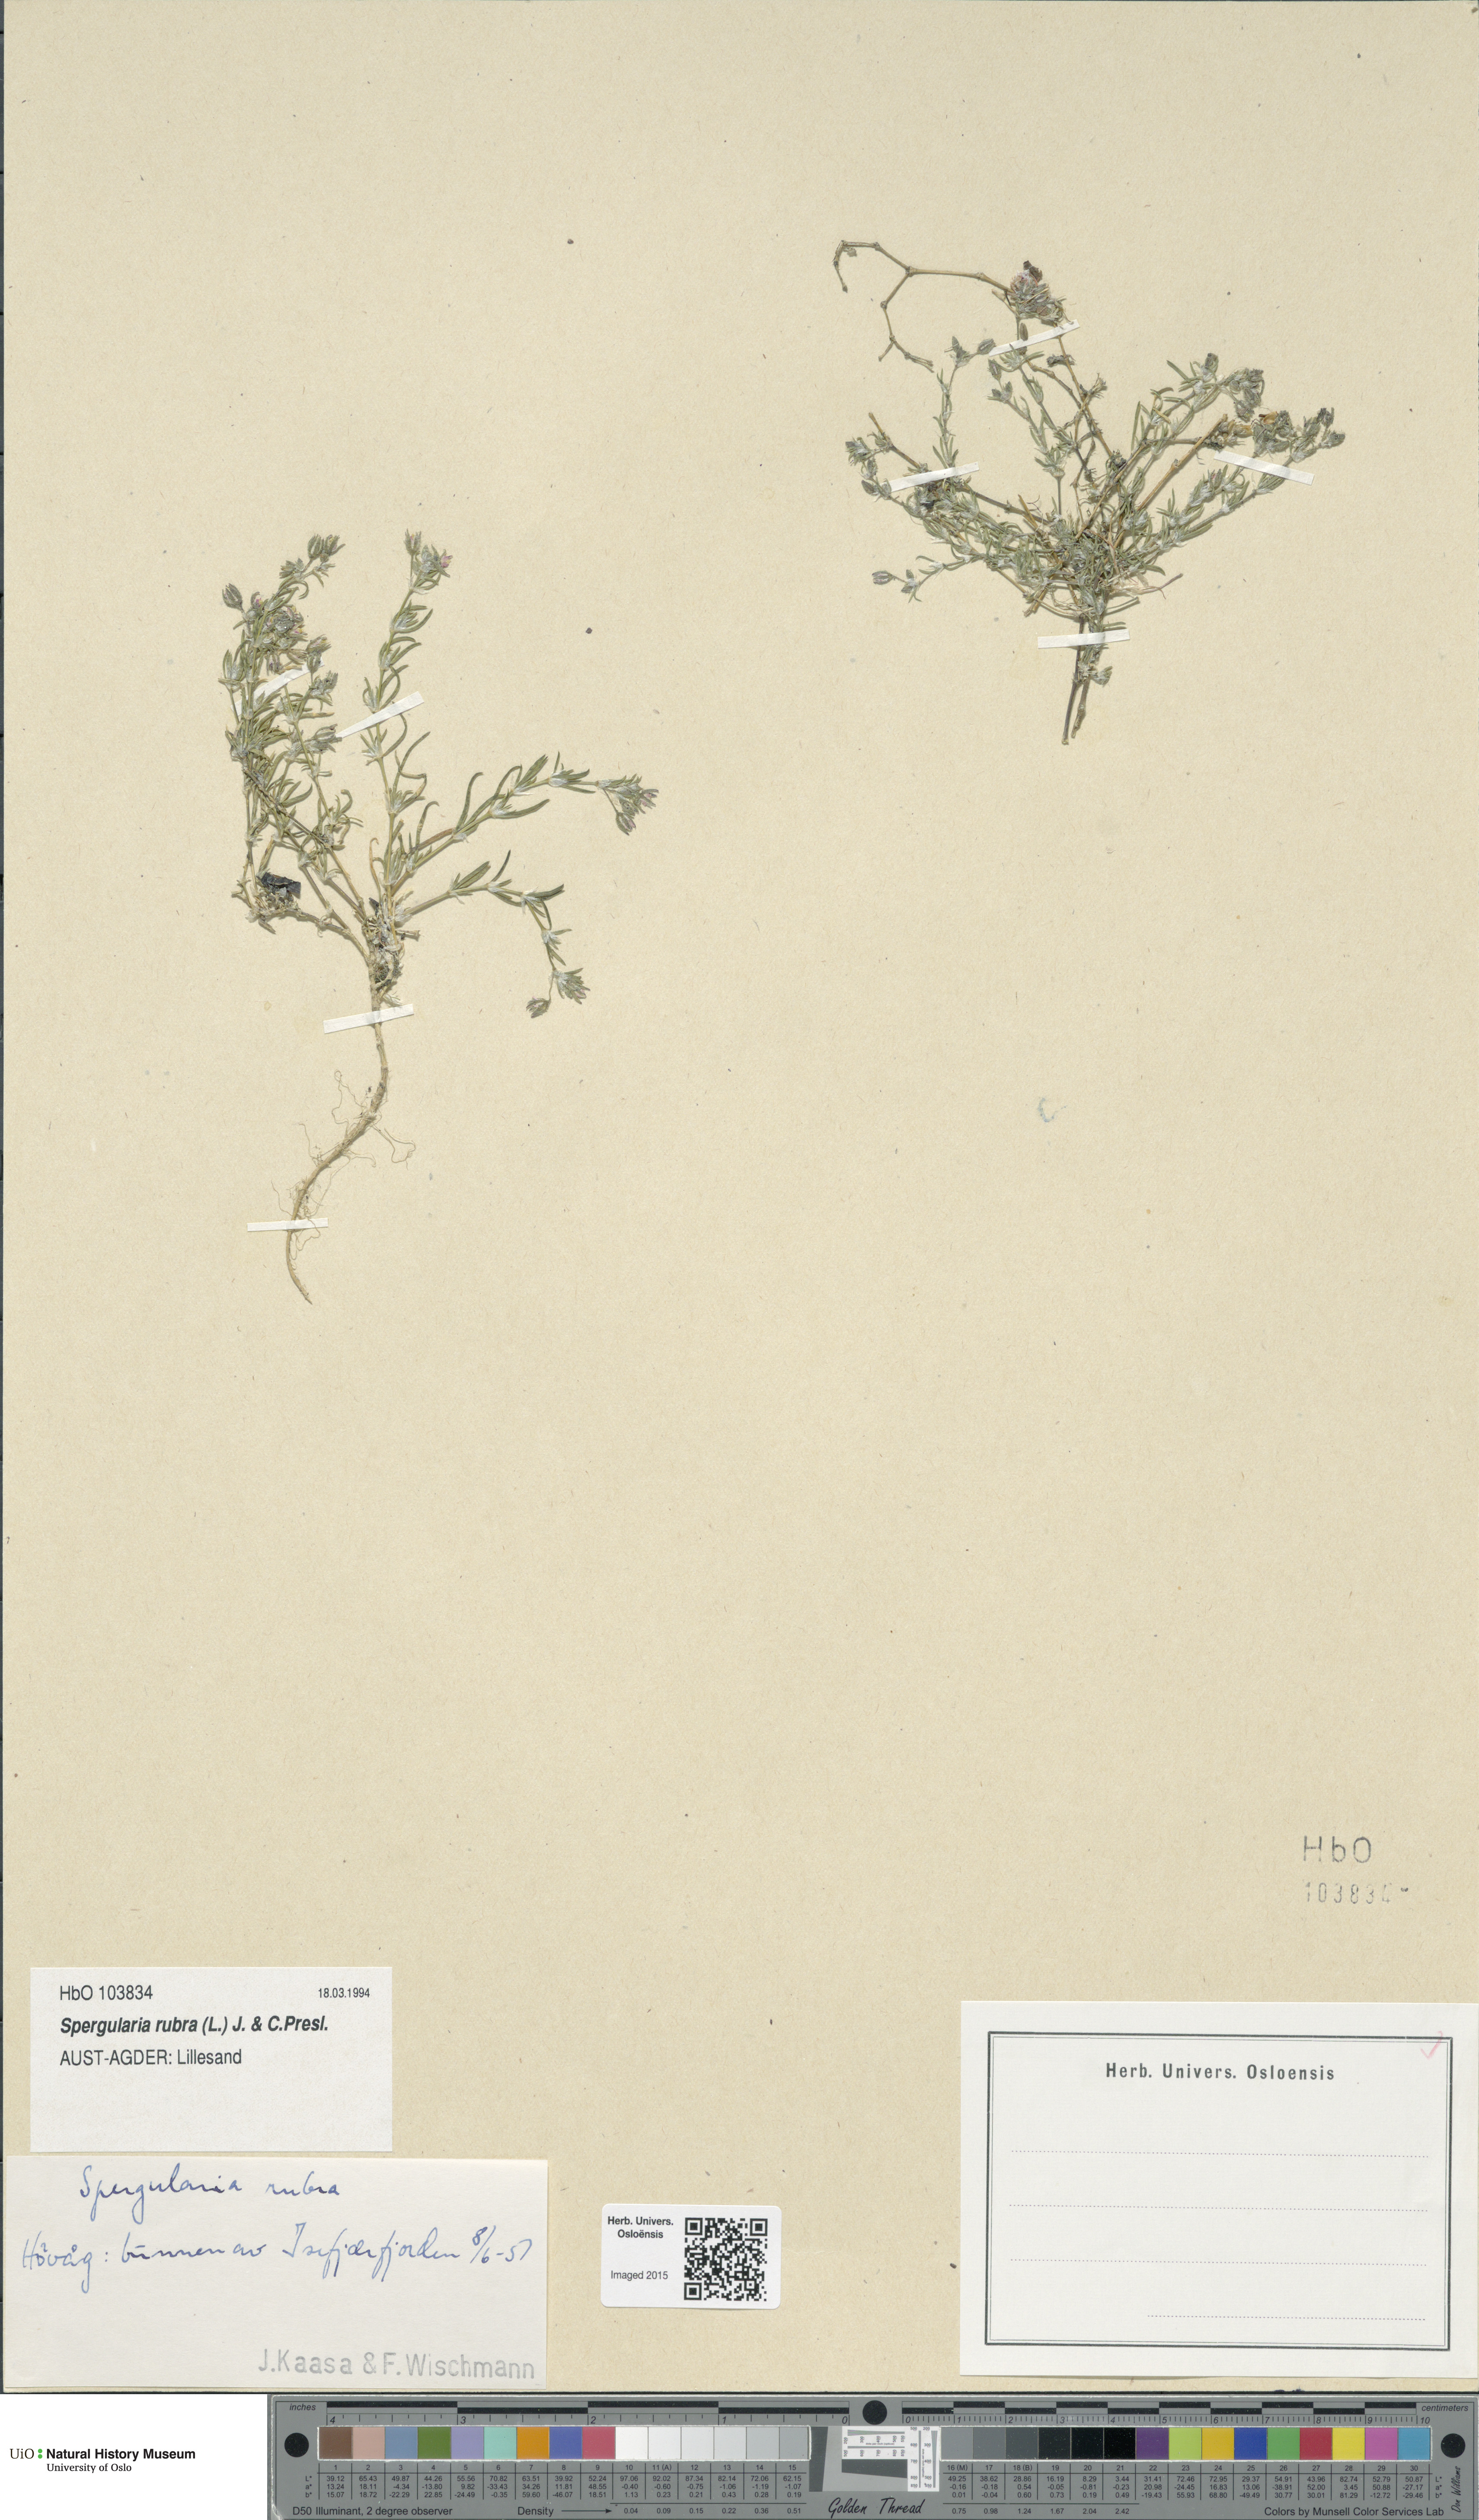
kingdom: Plantae
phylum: Tracheophyta
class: Magnoliopsida
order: Caryophyllales
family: Caryophyllaceae
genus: Spergularia
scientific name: Spergularia rubra
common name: Red sand-spurrey
